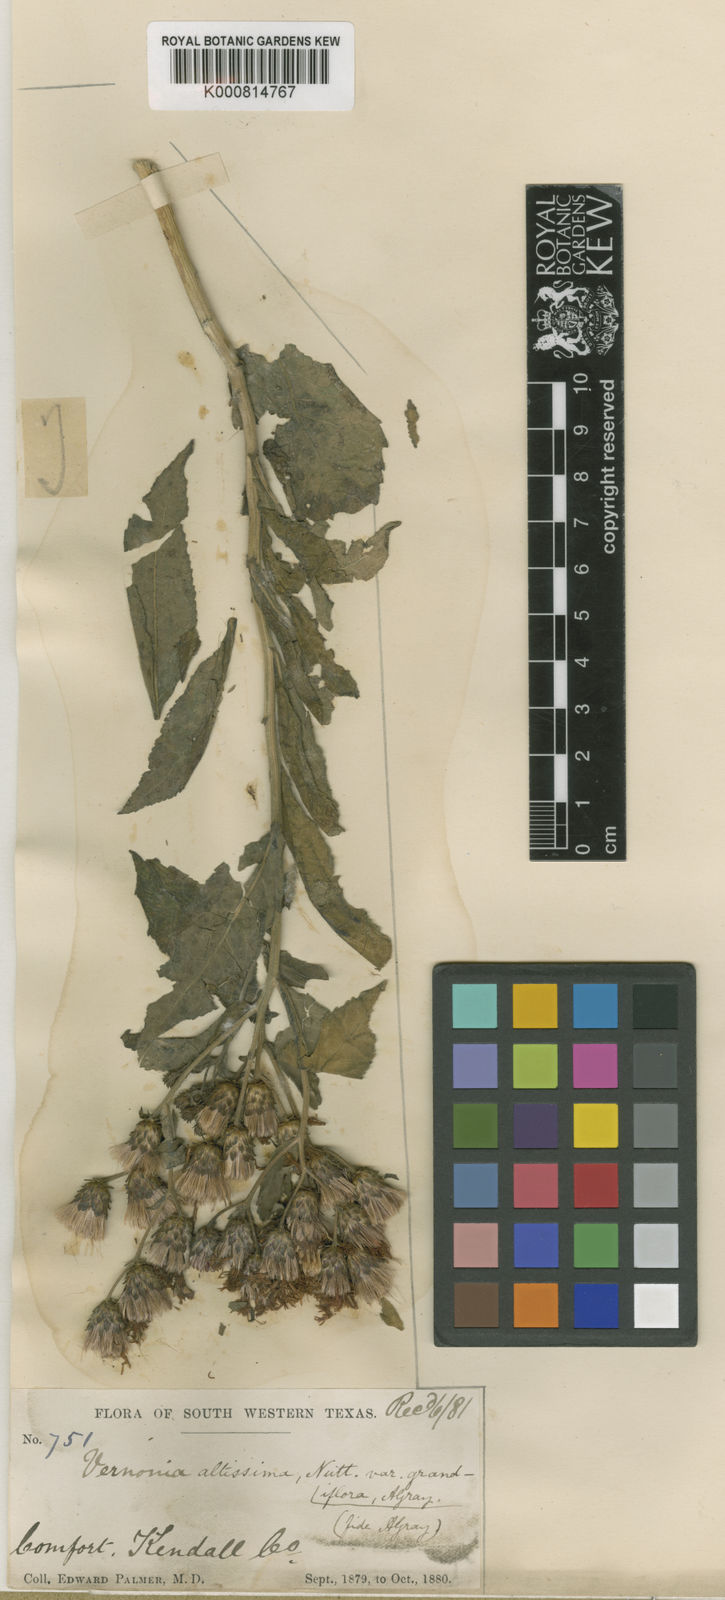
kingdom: Plantae
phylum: Tracheophyta
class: Magnoliopsida
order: Asterales
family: Asteraceae
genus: Vernonia
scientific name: Vernonia gigantea
